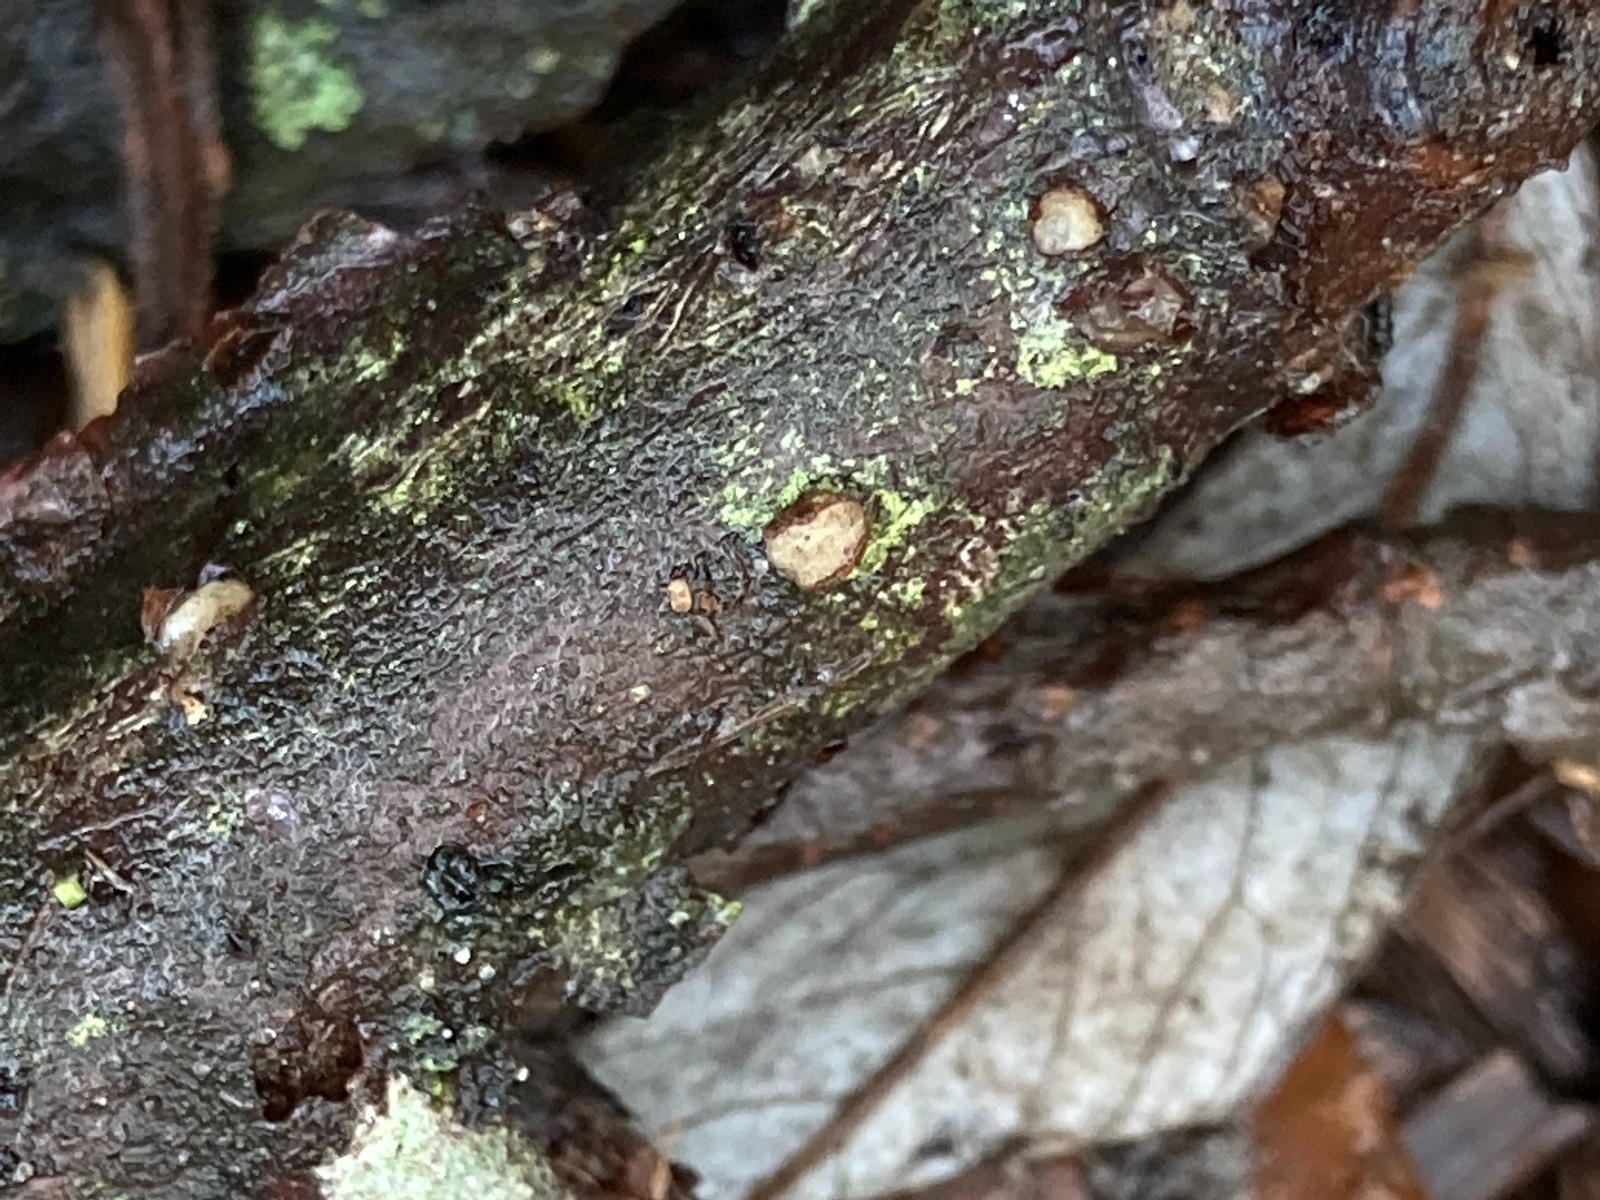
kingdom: Fungi
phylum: Basidiomycota
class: Pucciniomycetes
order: Platygloeales
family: Platygloeaceae
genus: Platygloea
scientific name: Platygloea disciformis
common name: linde-slimklat
